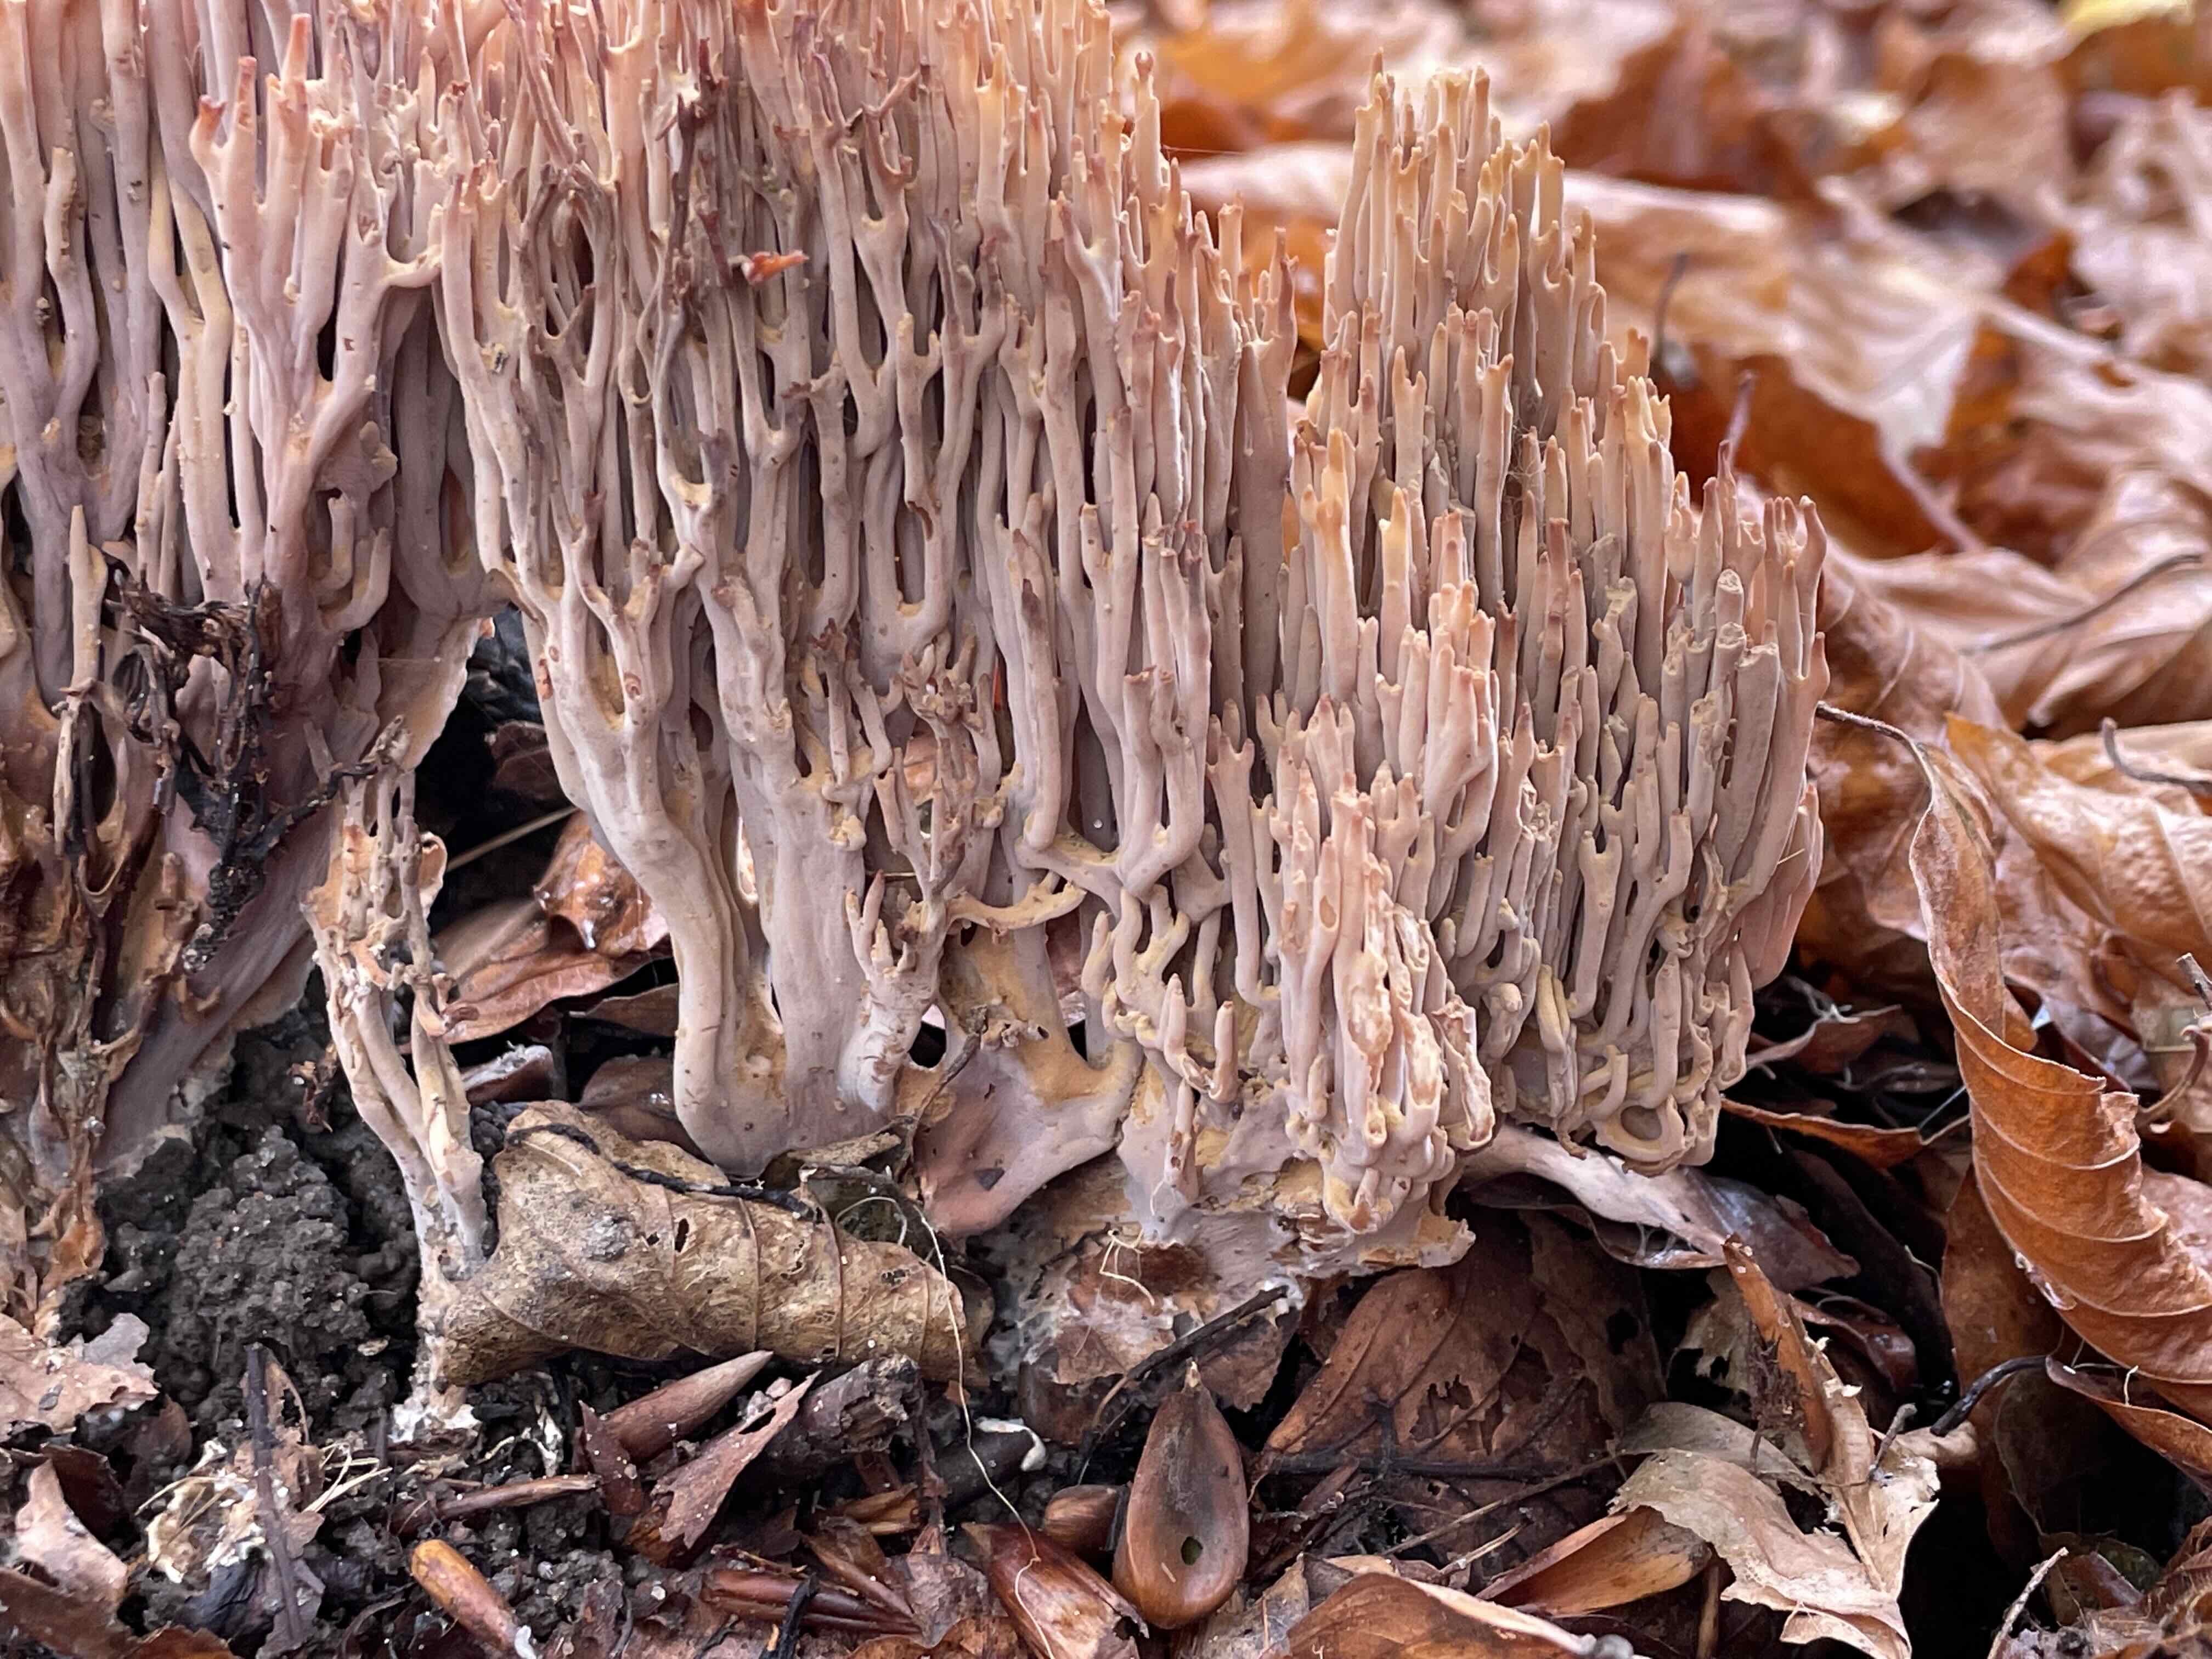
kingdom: Fungi
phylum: Basidiomycota
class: Agaricomycetes
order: Gomphales
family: Gomphaceae
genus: Ramaria
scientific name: Ramaria stricta
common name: rank koralsvamp
